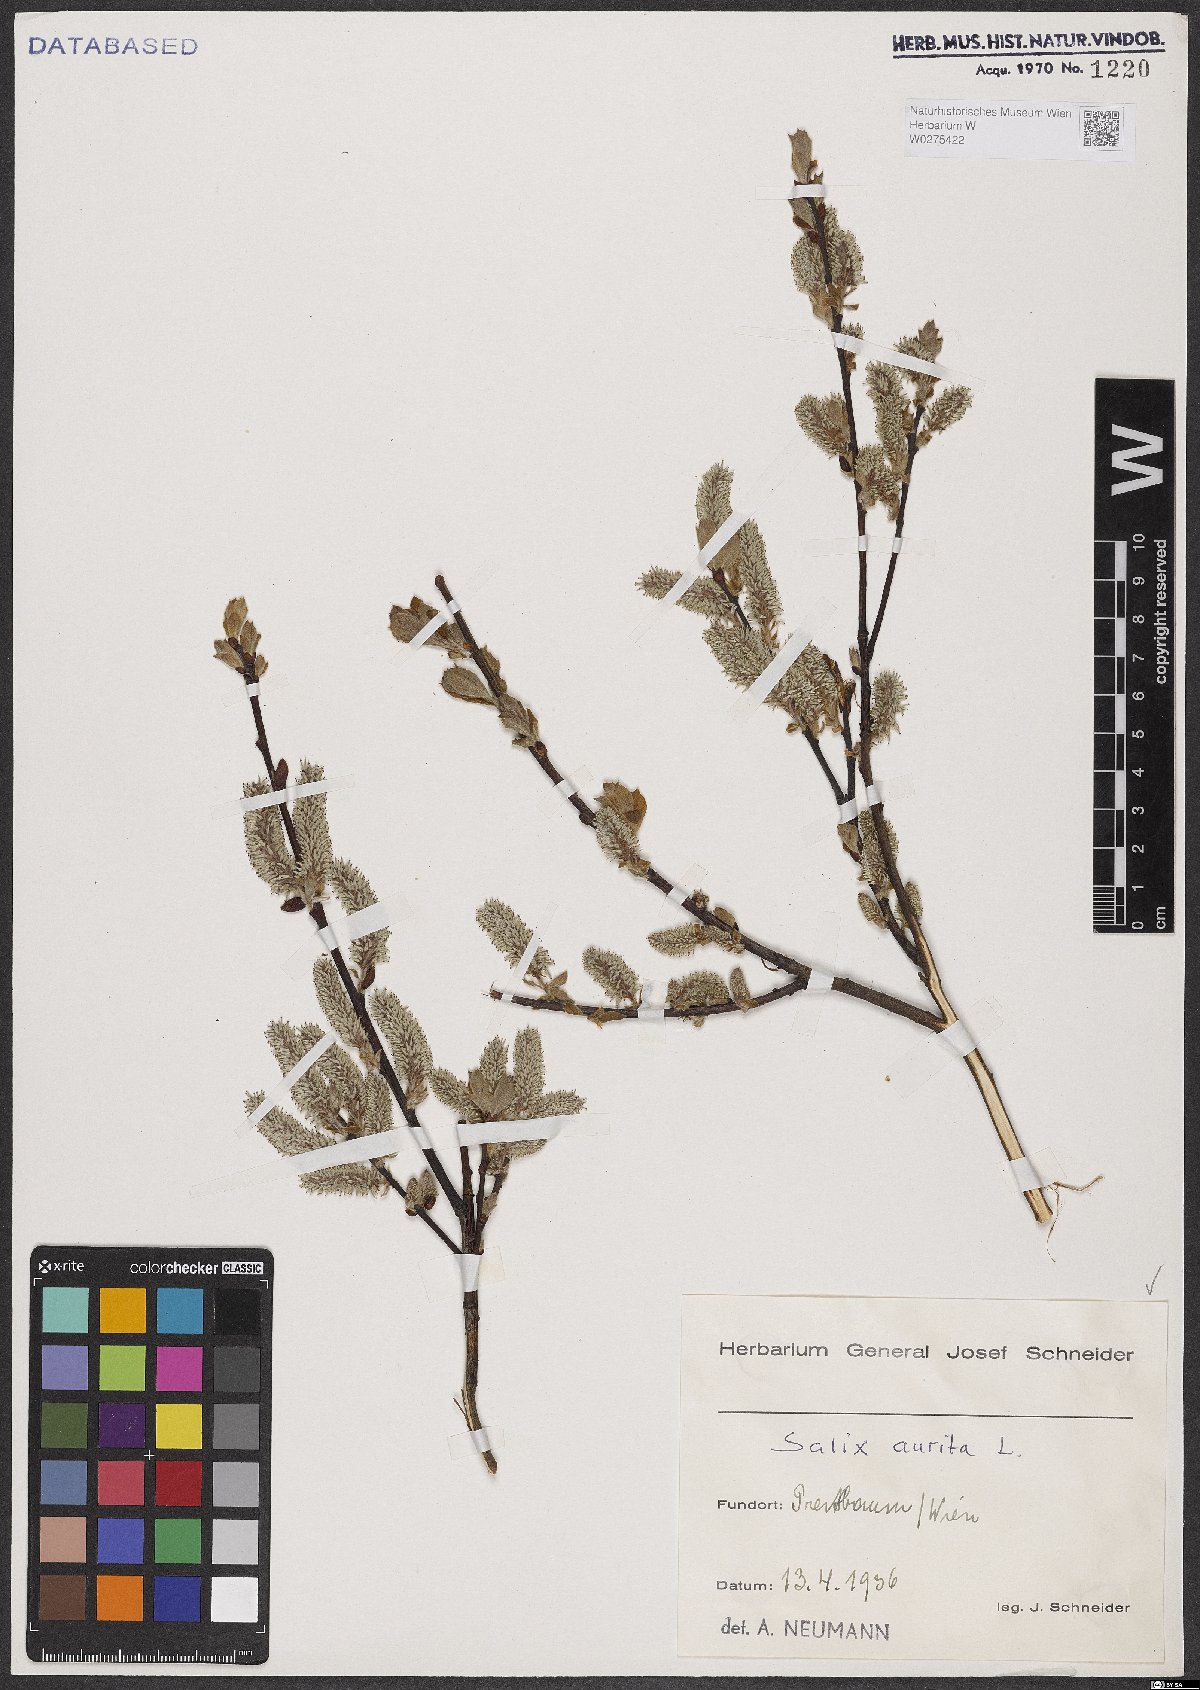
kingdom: Plantae
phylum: Tracheophyta
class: Magnoliopsida
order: Malpighiales
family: Salicaceae
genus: Salix
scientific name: Salix aurita
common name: Eared willow
